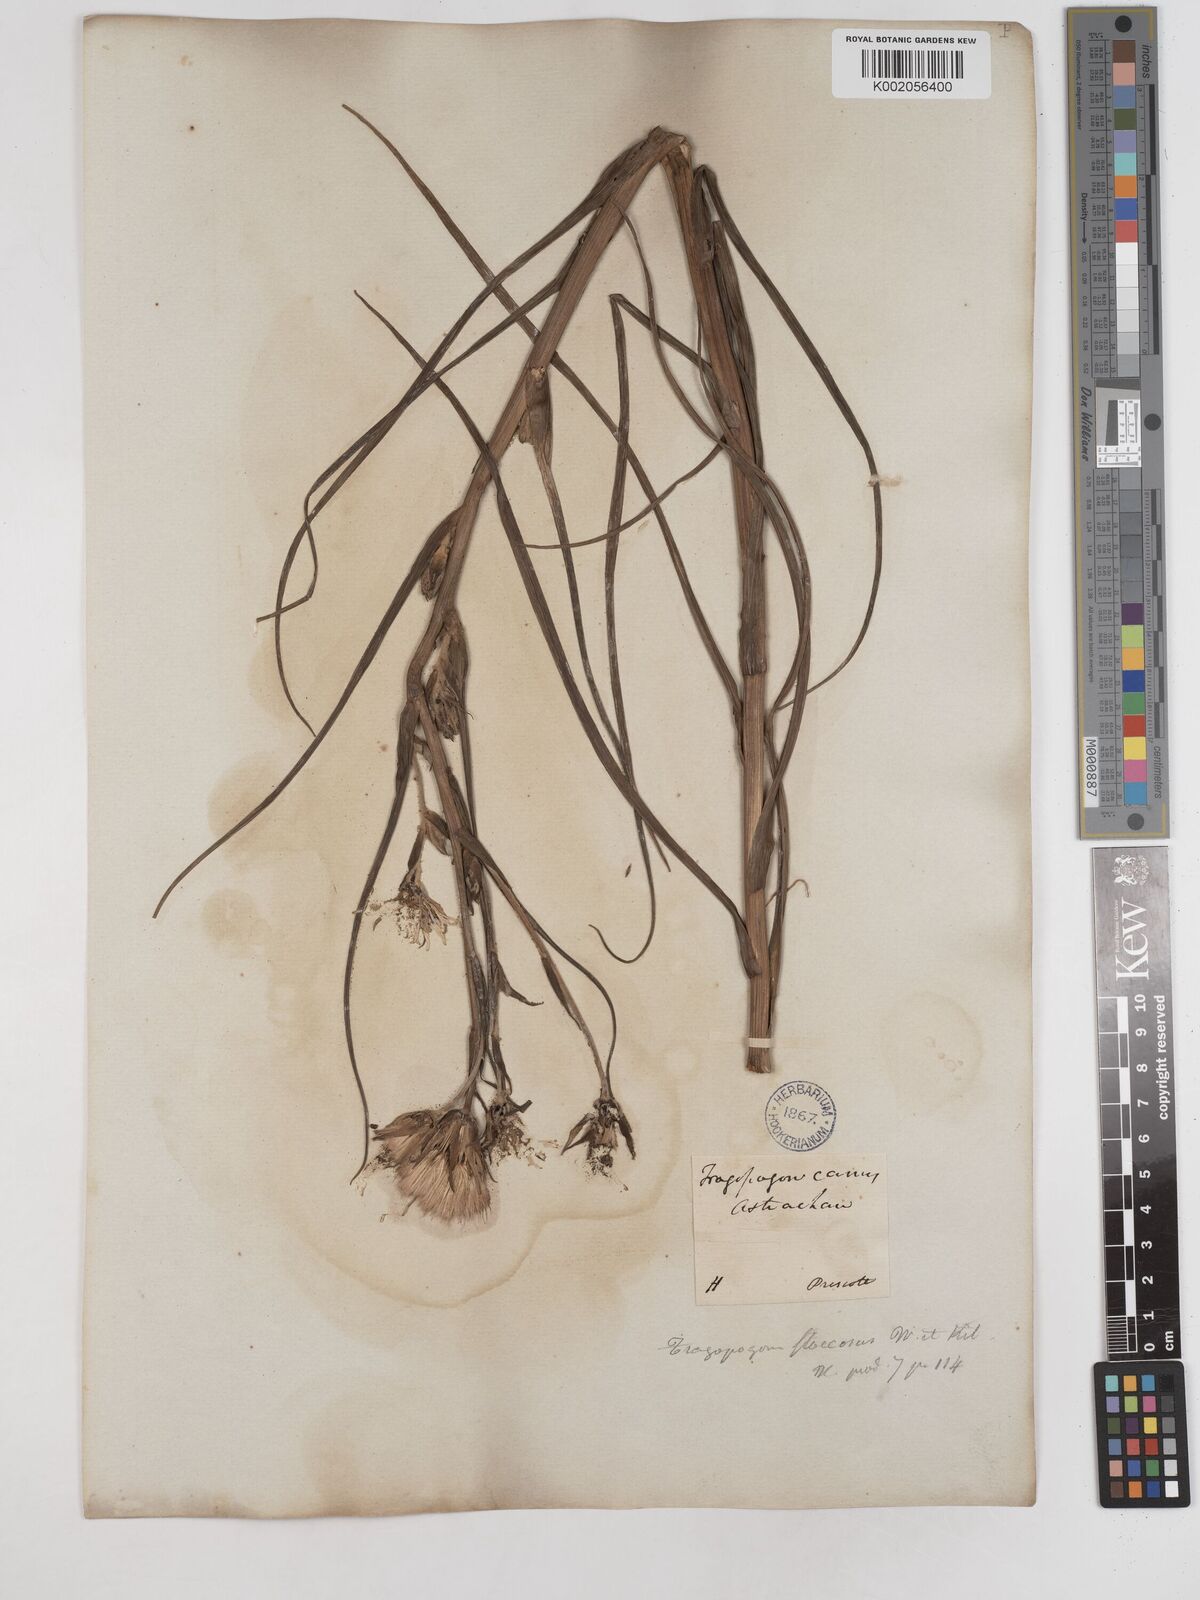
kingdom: Plantae
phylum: Tracheophyta
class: Magnoliopsida
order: Asterales
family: Asteraceae
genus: Tragopogon
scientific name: Tragopogon brevirostris
